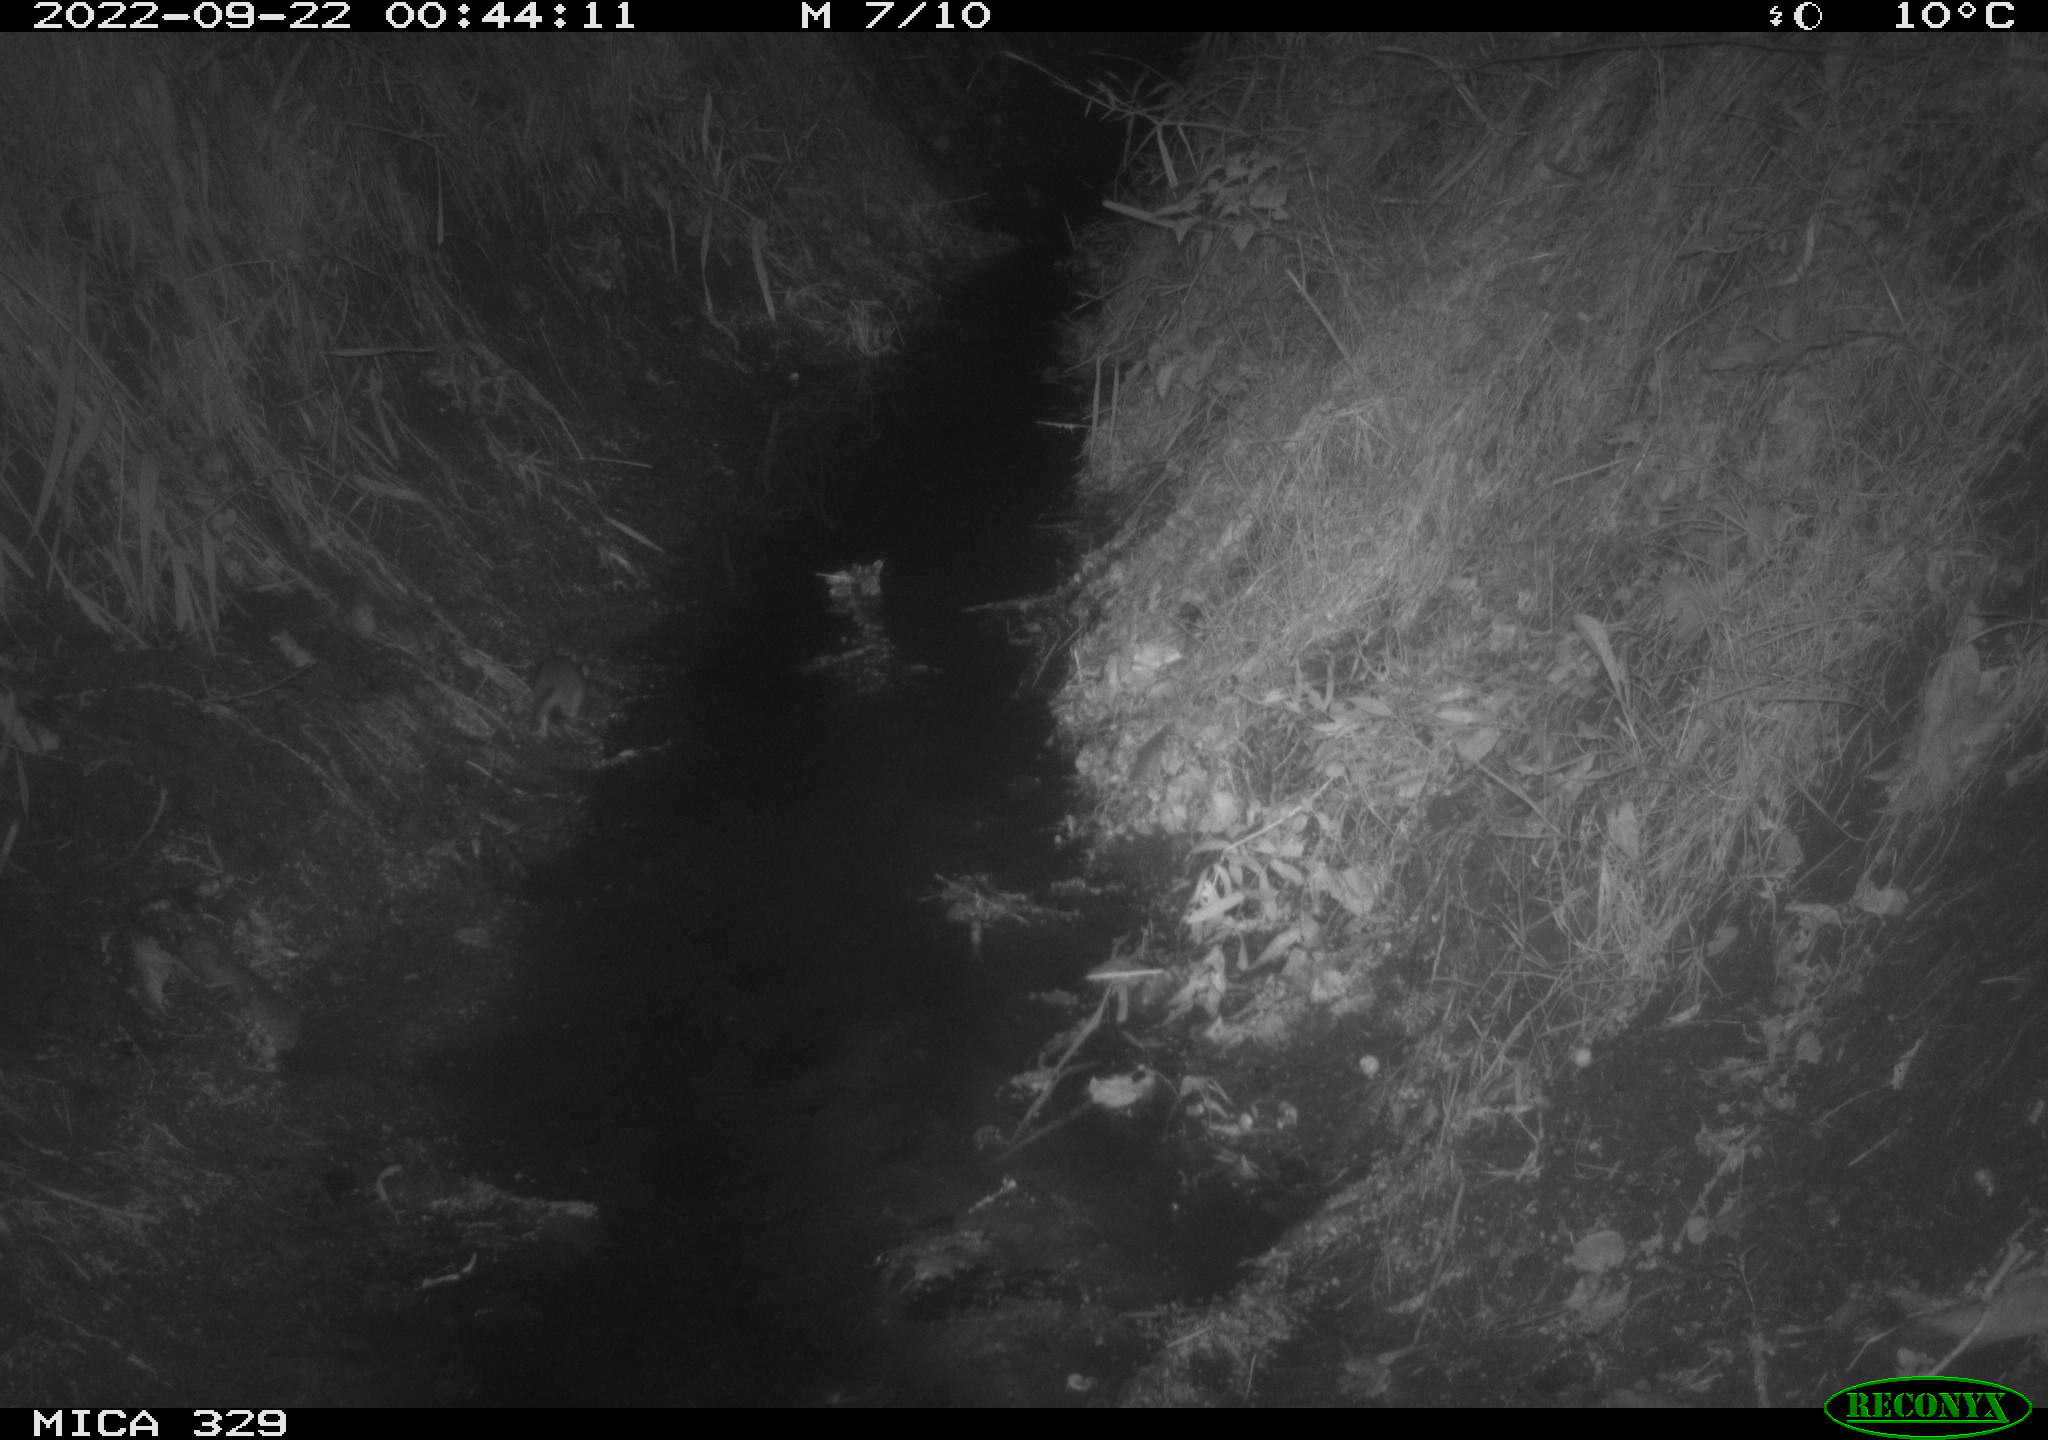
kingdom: Animalia
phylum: Chordata
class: Mammalia
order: Rodentia
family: Muridae
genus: Rattus
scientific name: Rattus norvegicus
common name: Brown rat
